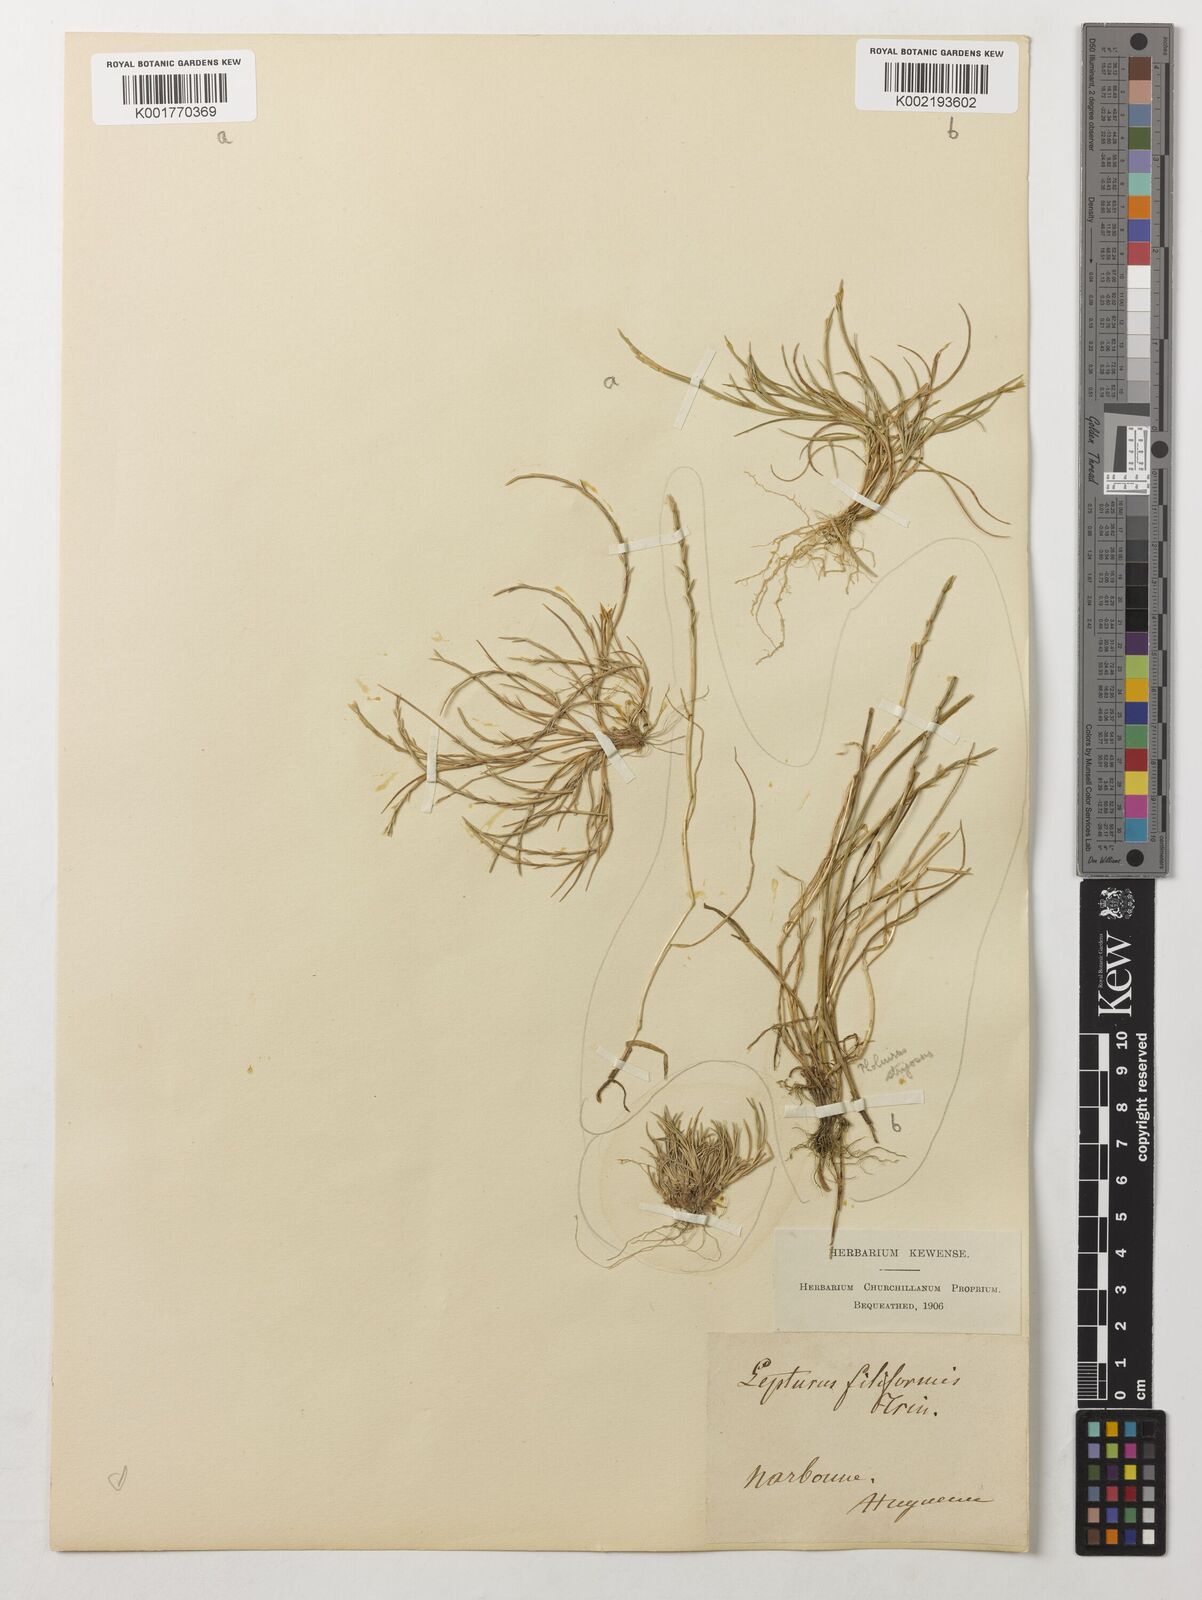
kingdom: Plantae
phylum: Tracheophyta
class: Liliopsida
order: Poales
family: Poaceae
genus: Parapholis
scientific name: Parapholis filiformis
